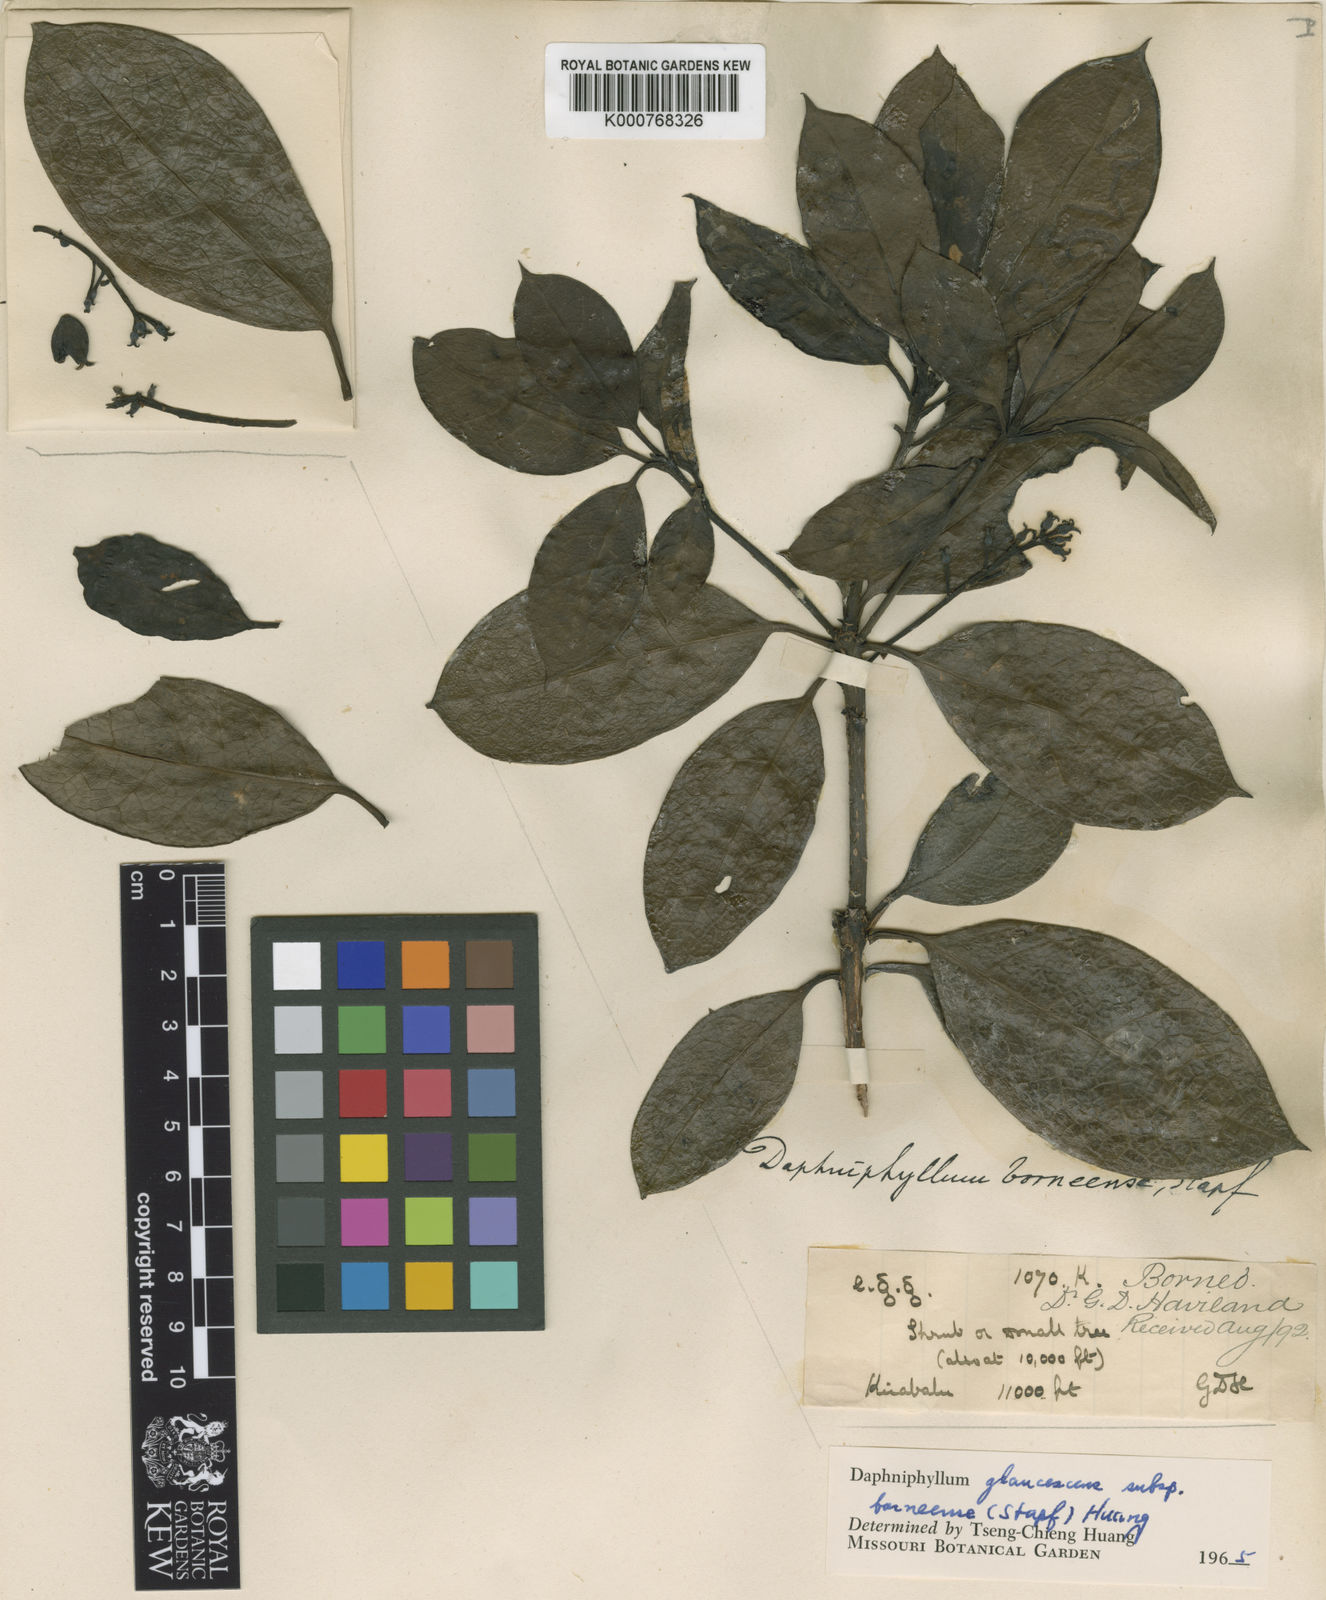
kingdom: Plantae
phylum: Tracheophyta
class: Magnoliopsida
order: Saxifragales
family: Daphniphyllaceae
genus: Daphniphyllum
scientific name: Daphniphyllum borneense
